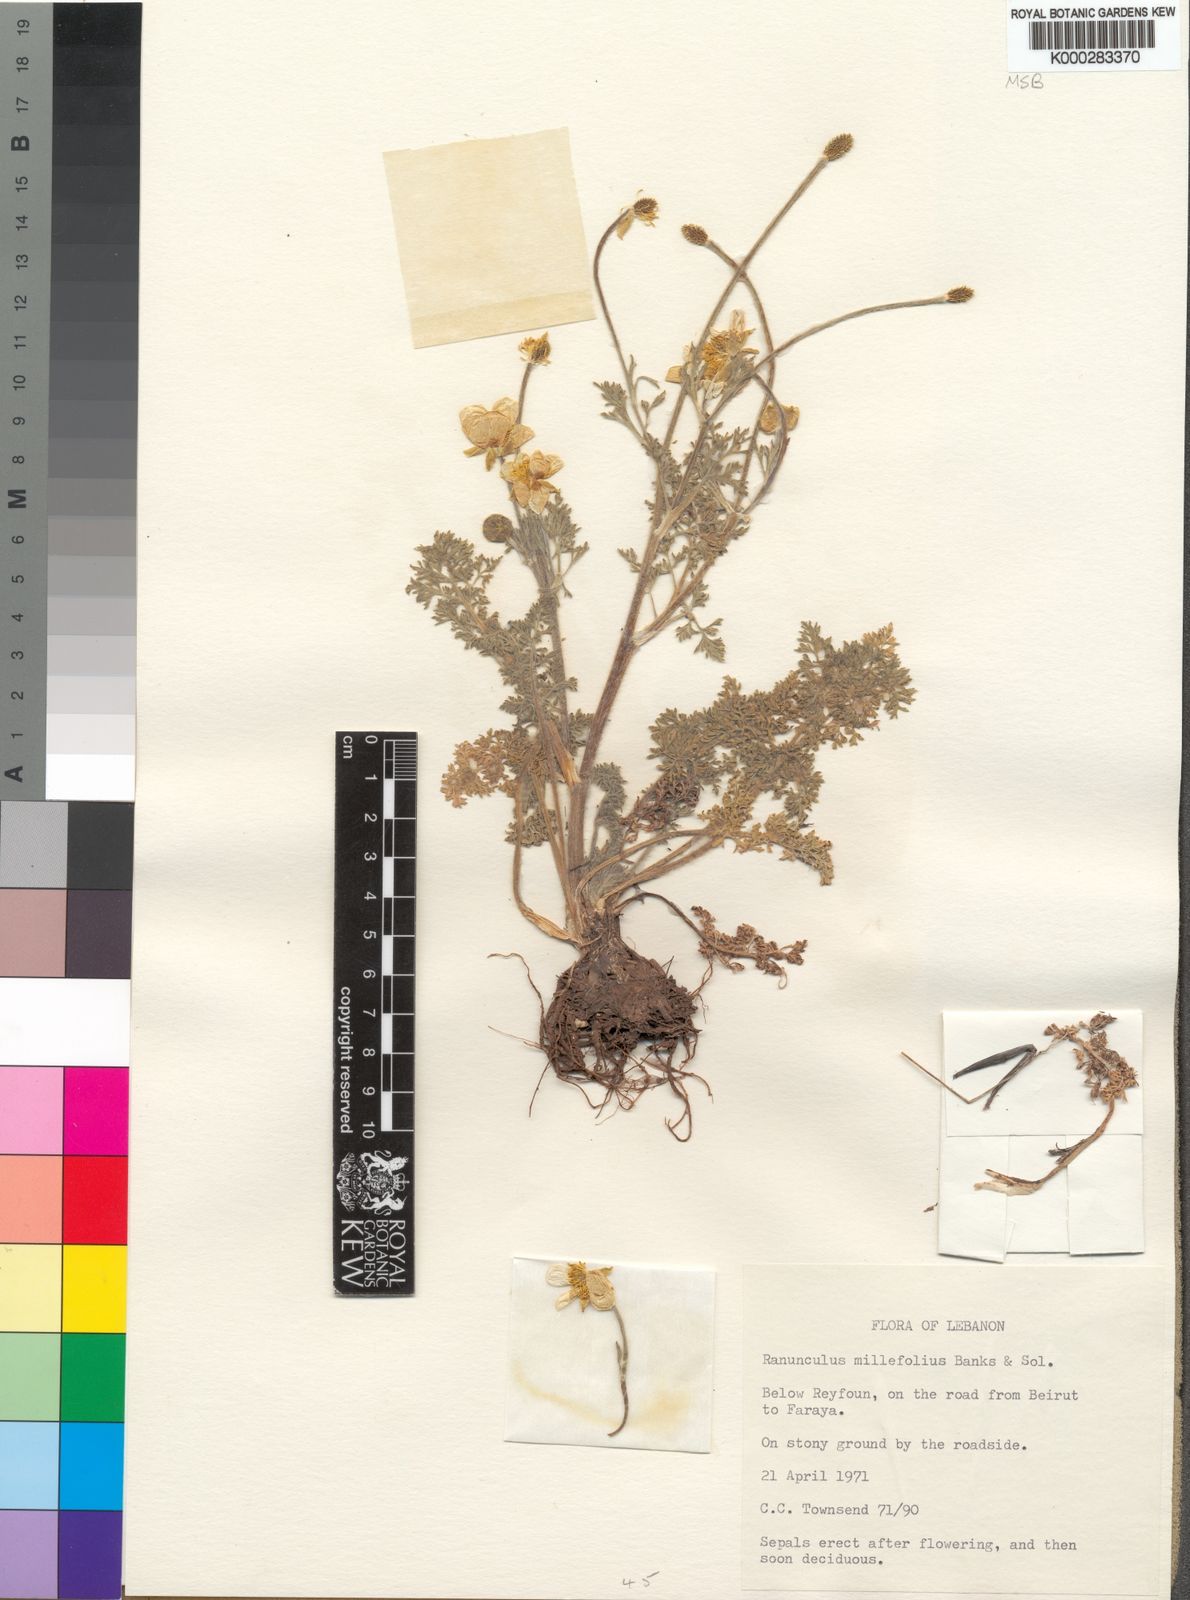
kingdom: Plantae
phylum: Tracheophyta
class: Magnoliopsida
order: Ranunculales
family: Ranunculaceae
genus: Ranunculus
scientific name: Ranunculus millefolius
